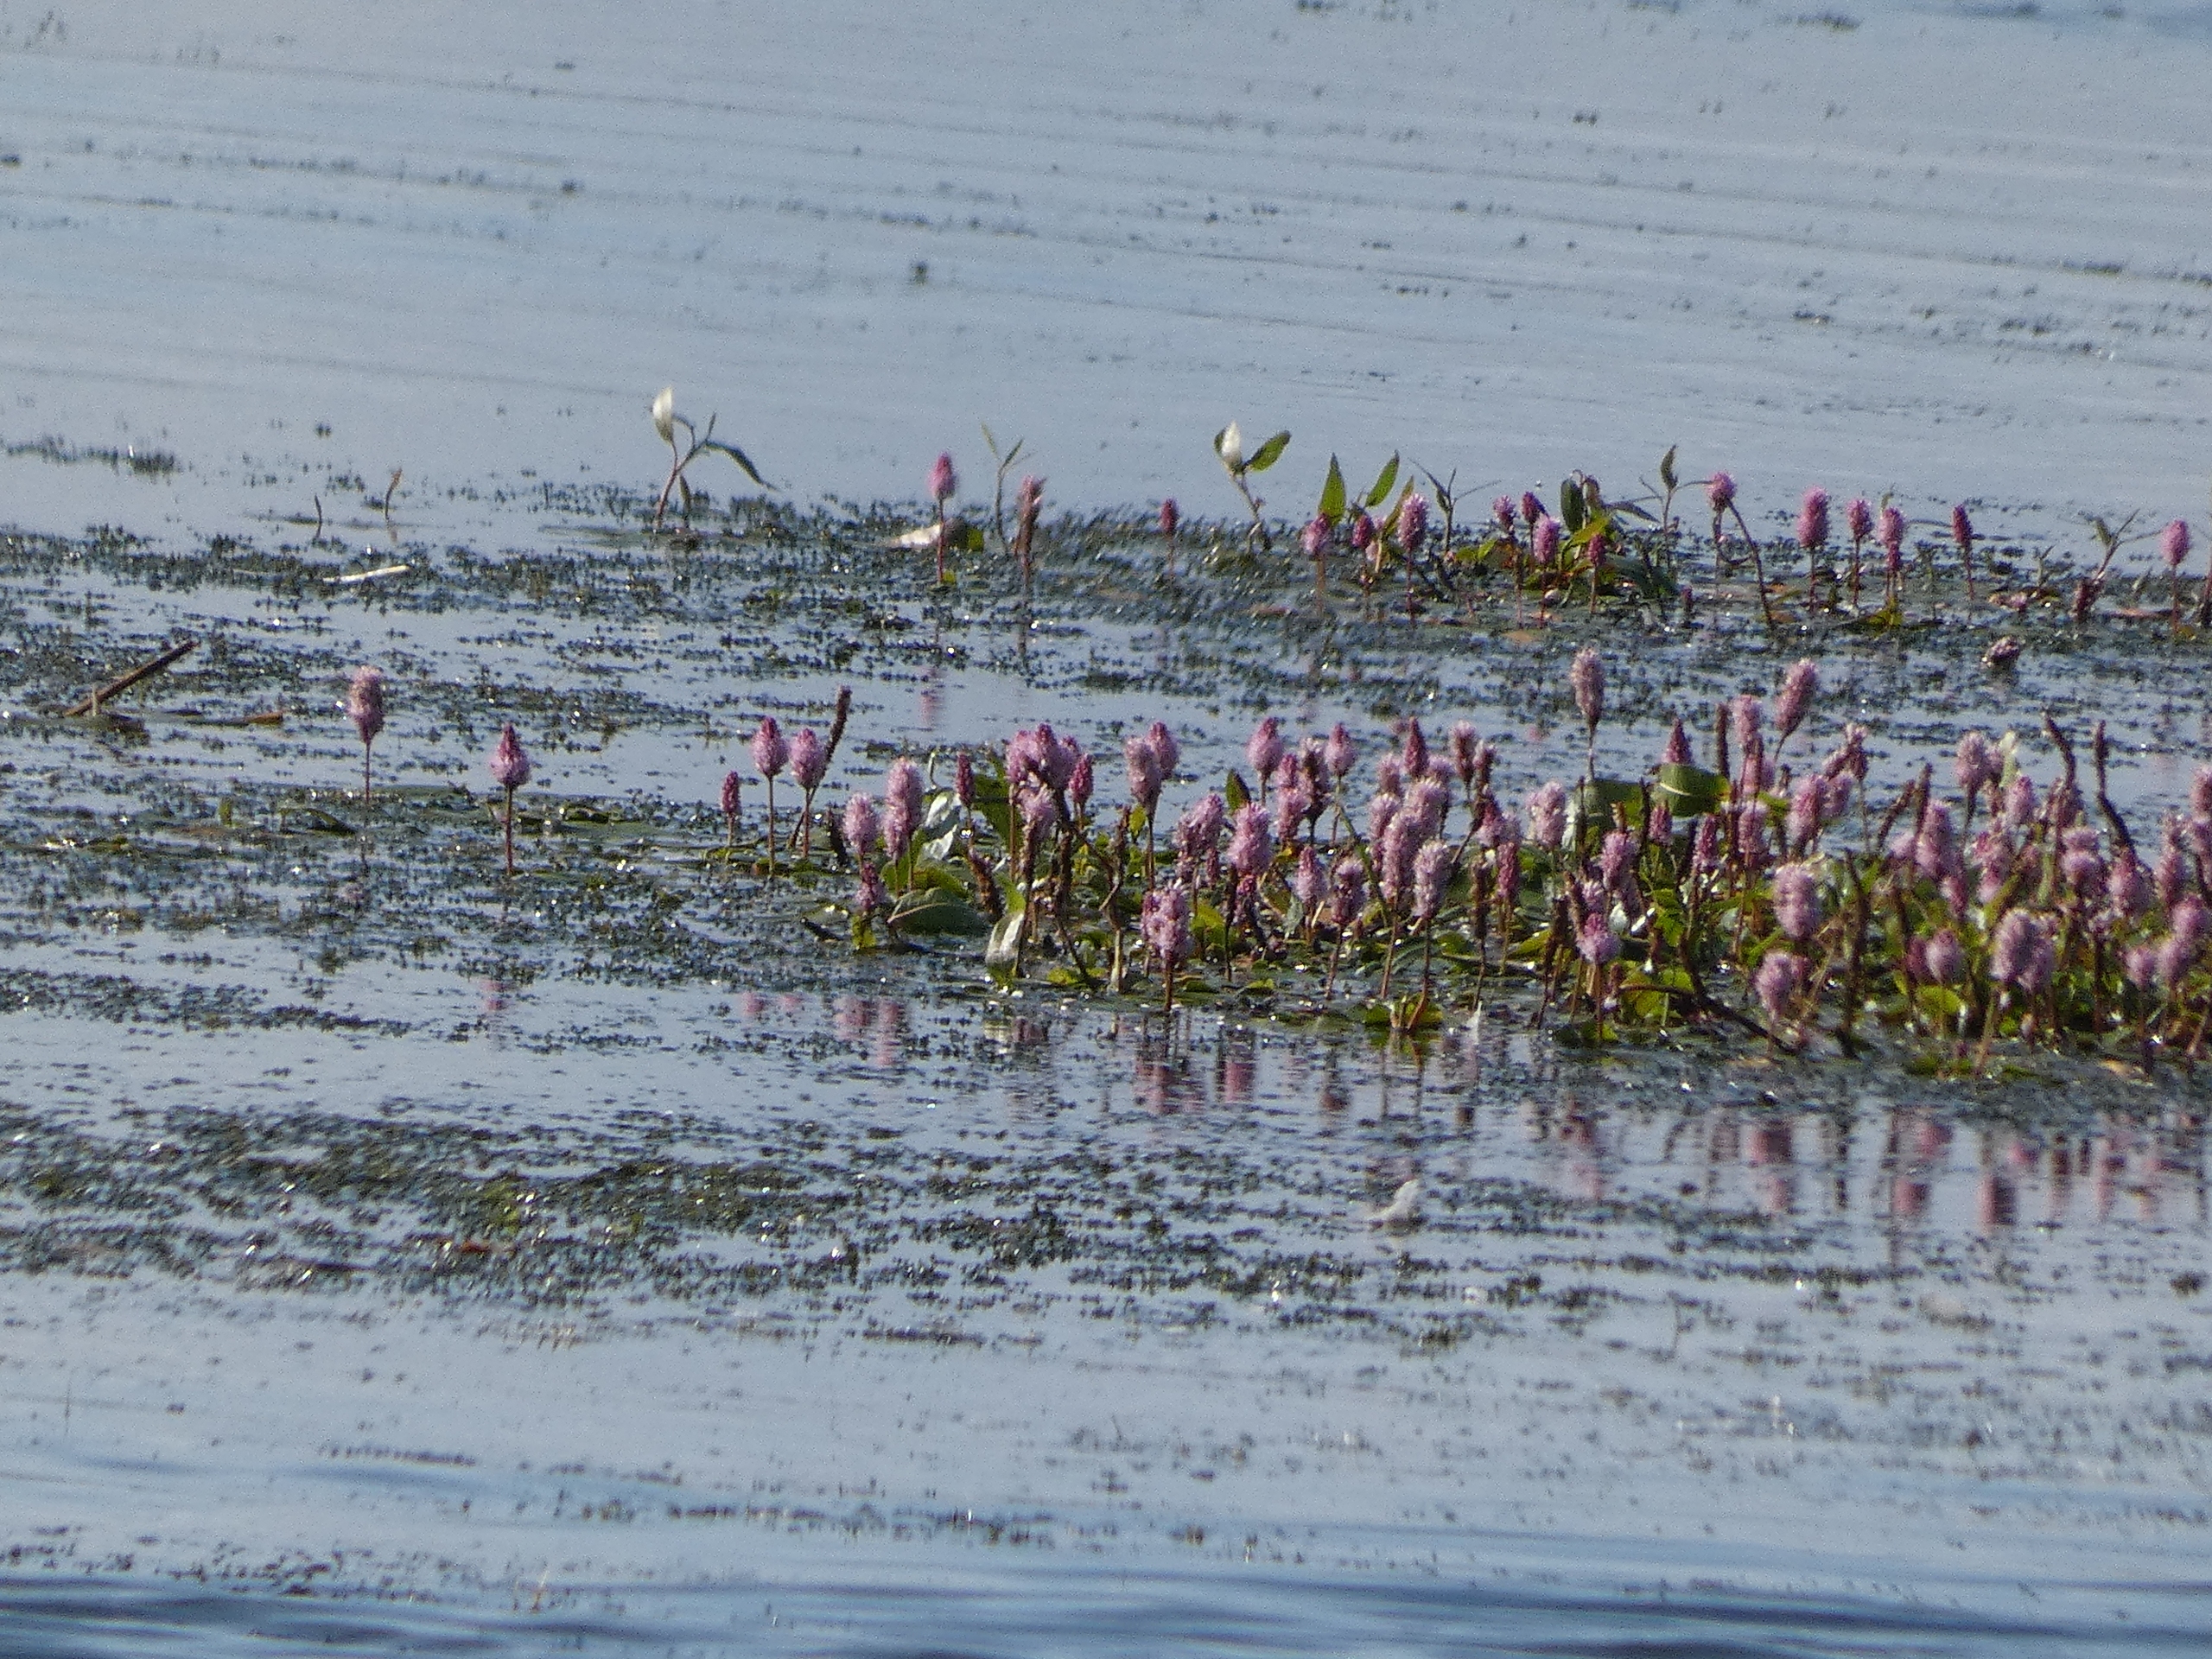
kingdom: Plantae
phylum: Tracheophyta
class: Magnoliopsida
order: Caryophyllales
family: Polygonaceae
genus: Persicaria
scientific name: Persicaria amphibia
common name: Vand-pileurt
